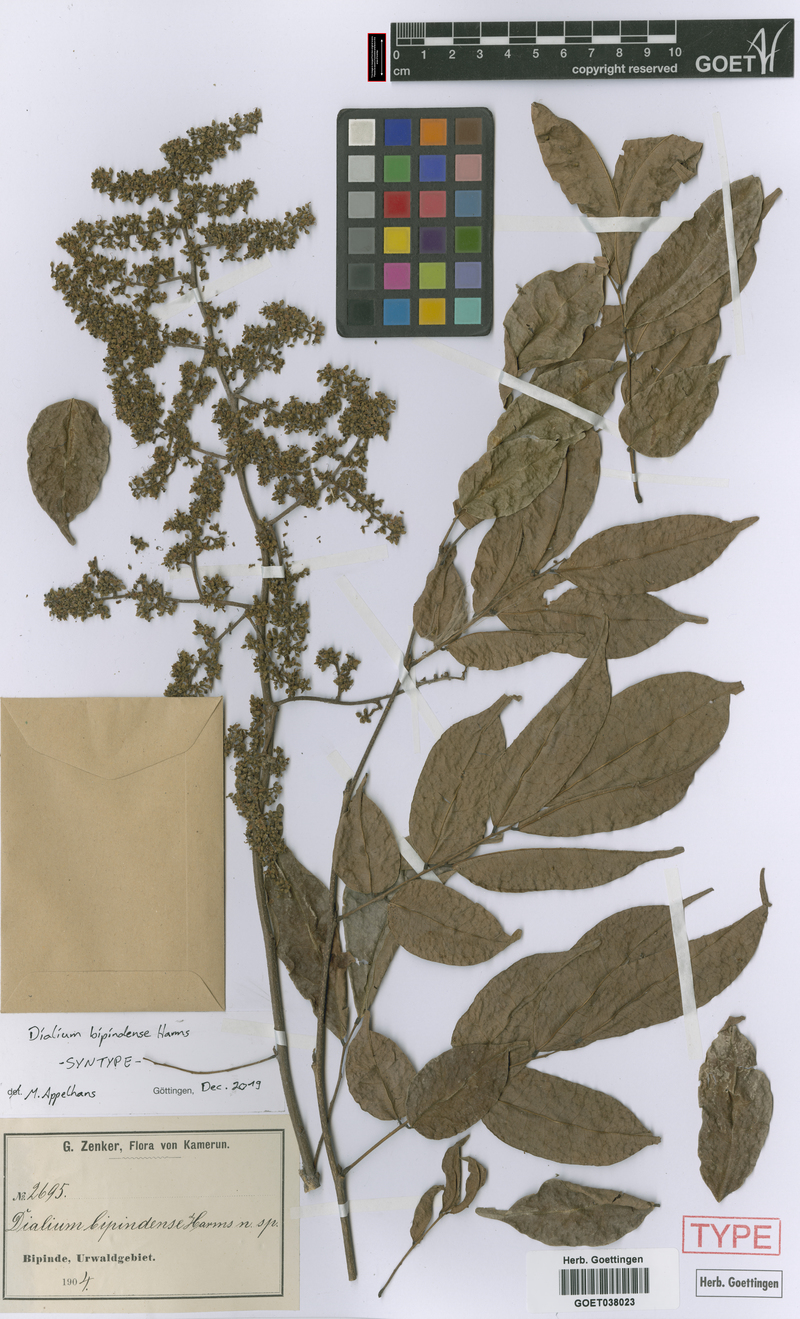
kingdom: Plantae
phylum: Tracheophyta
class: Magnoliopsida
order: Fabales
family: Fabaceae
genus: Dialium
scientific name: Dialium bipindense
